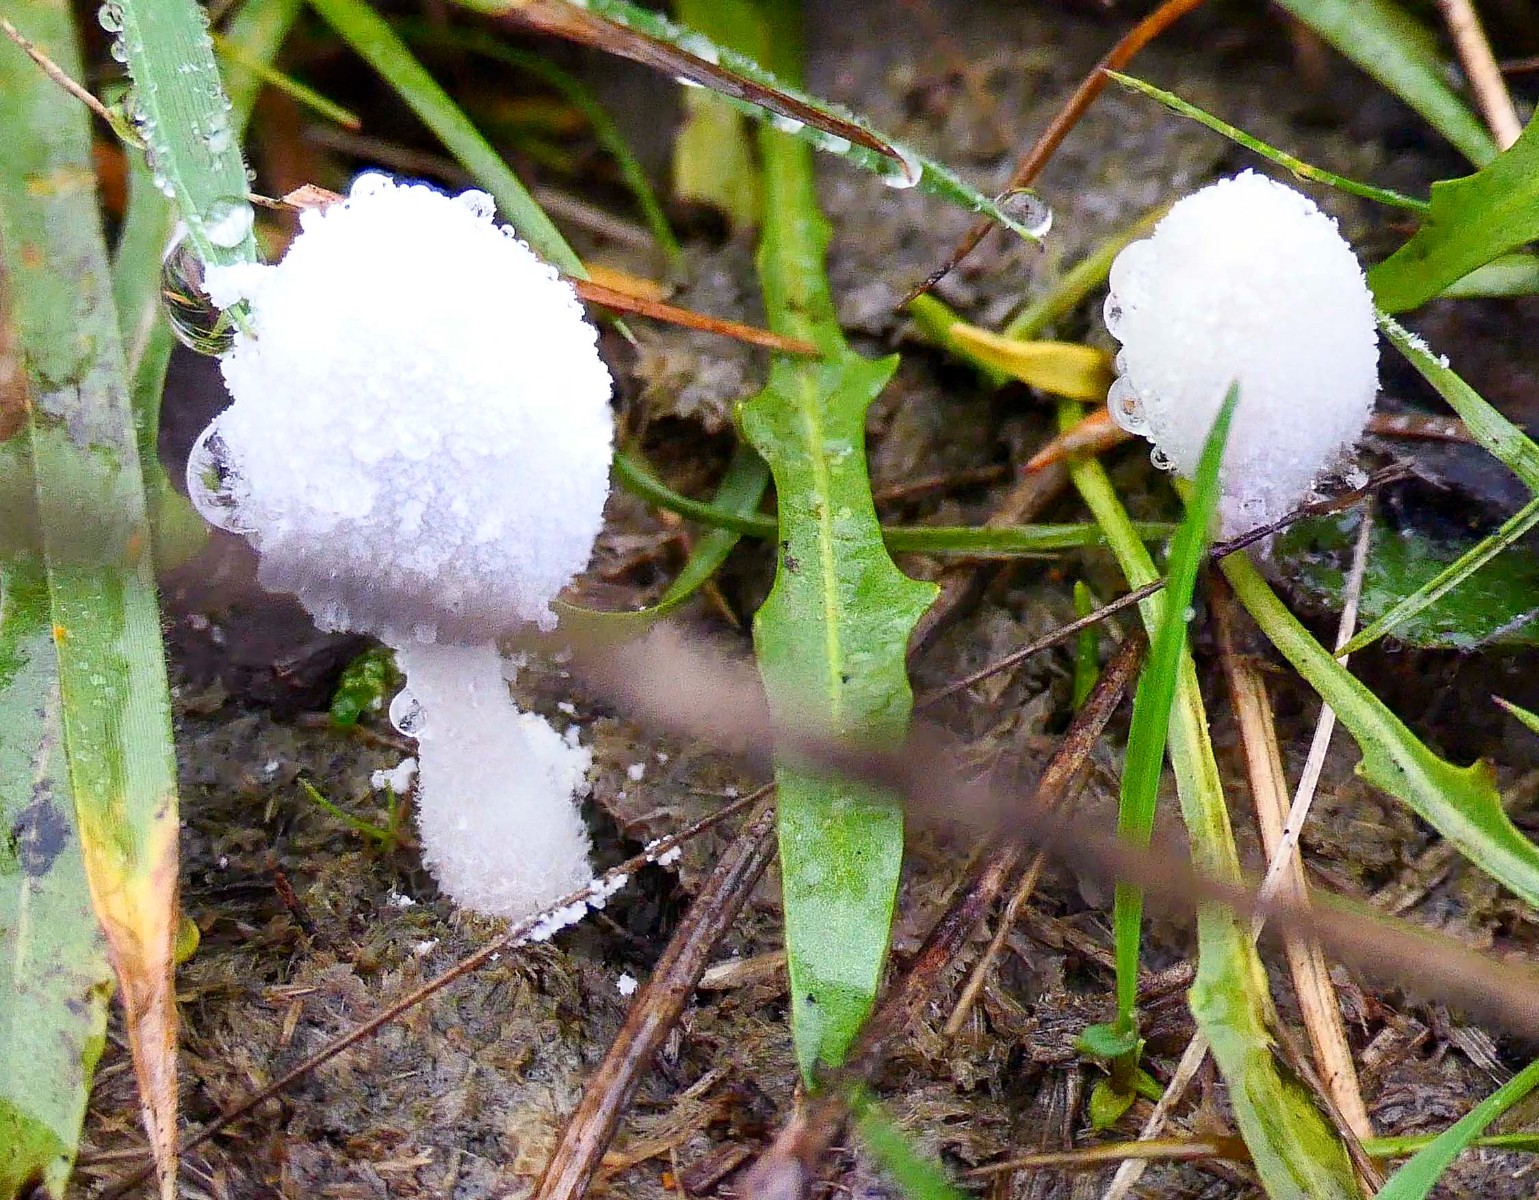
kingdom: Fungi
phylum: Basidiomycota
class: Agaricomycetes
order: Agaricales
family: Psathyrellaceae
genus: Coprinopsis
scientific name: Coprinopsis nivea
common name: snehvid blækhat
